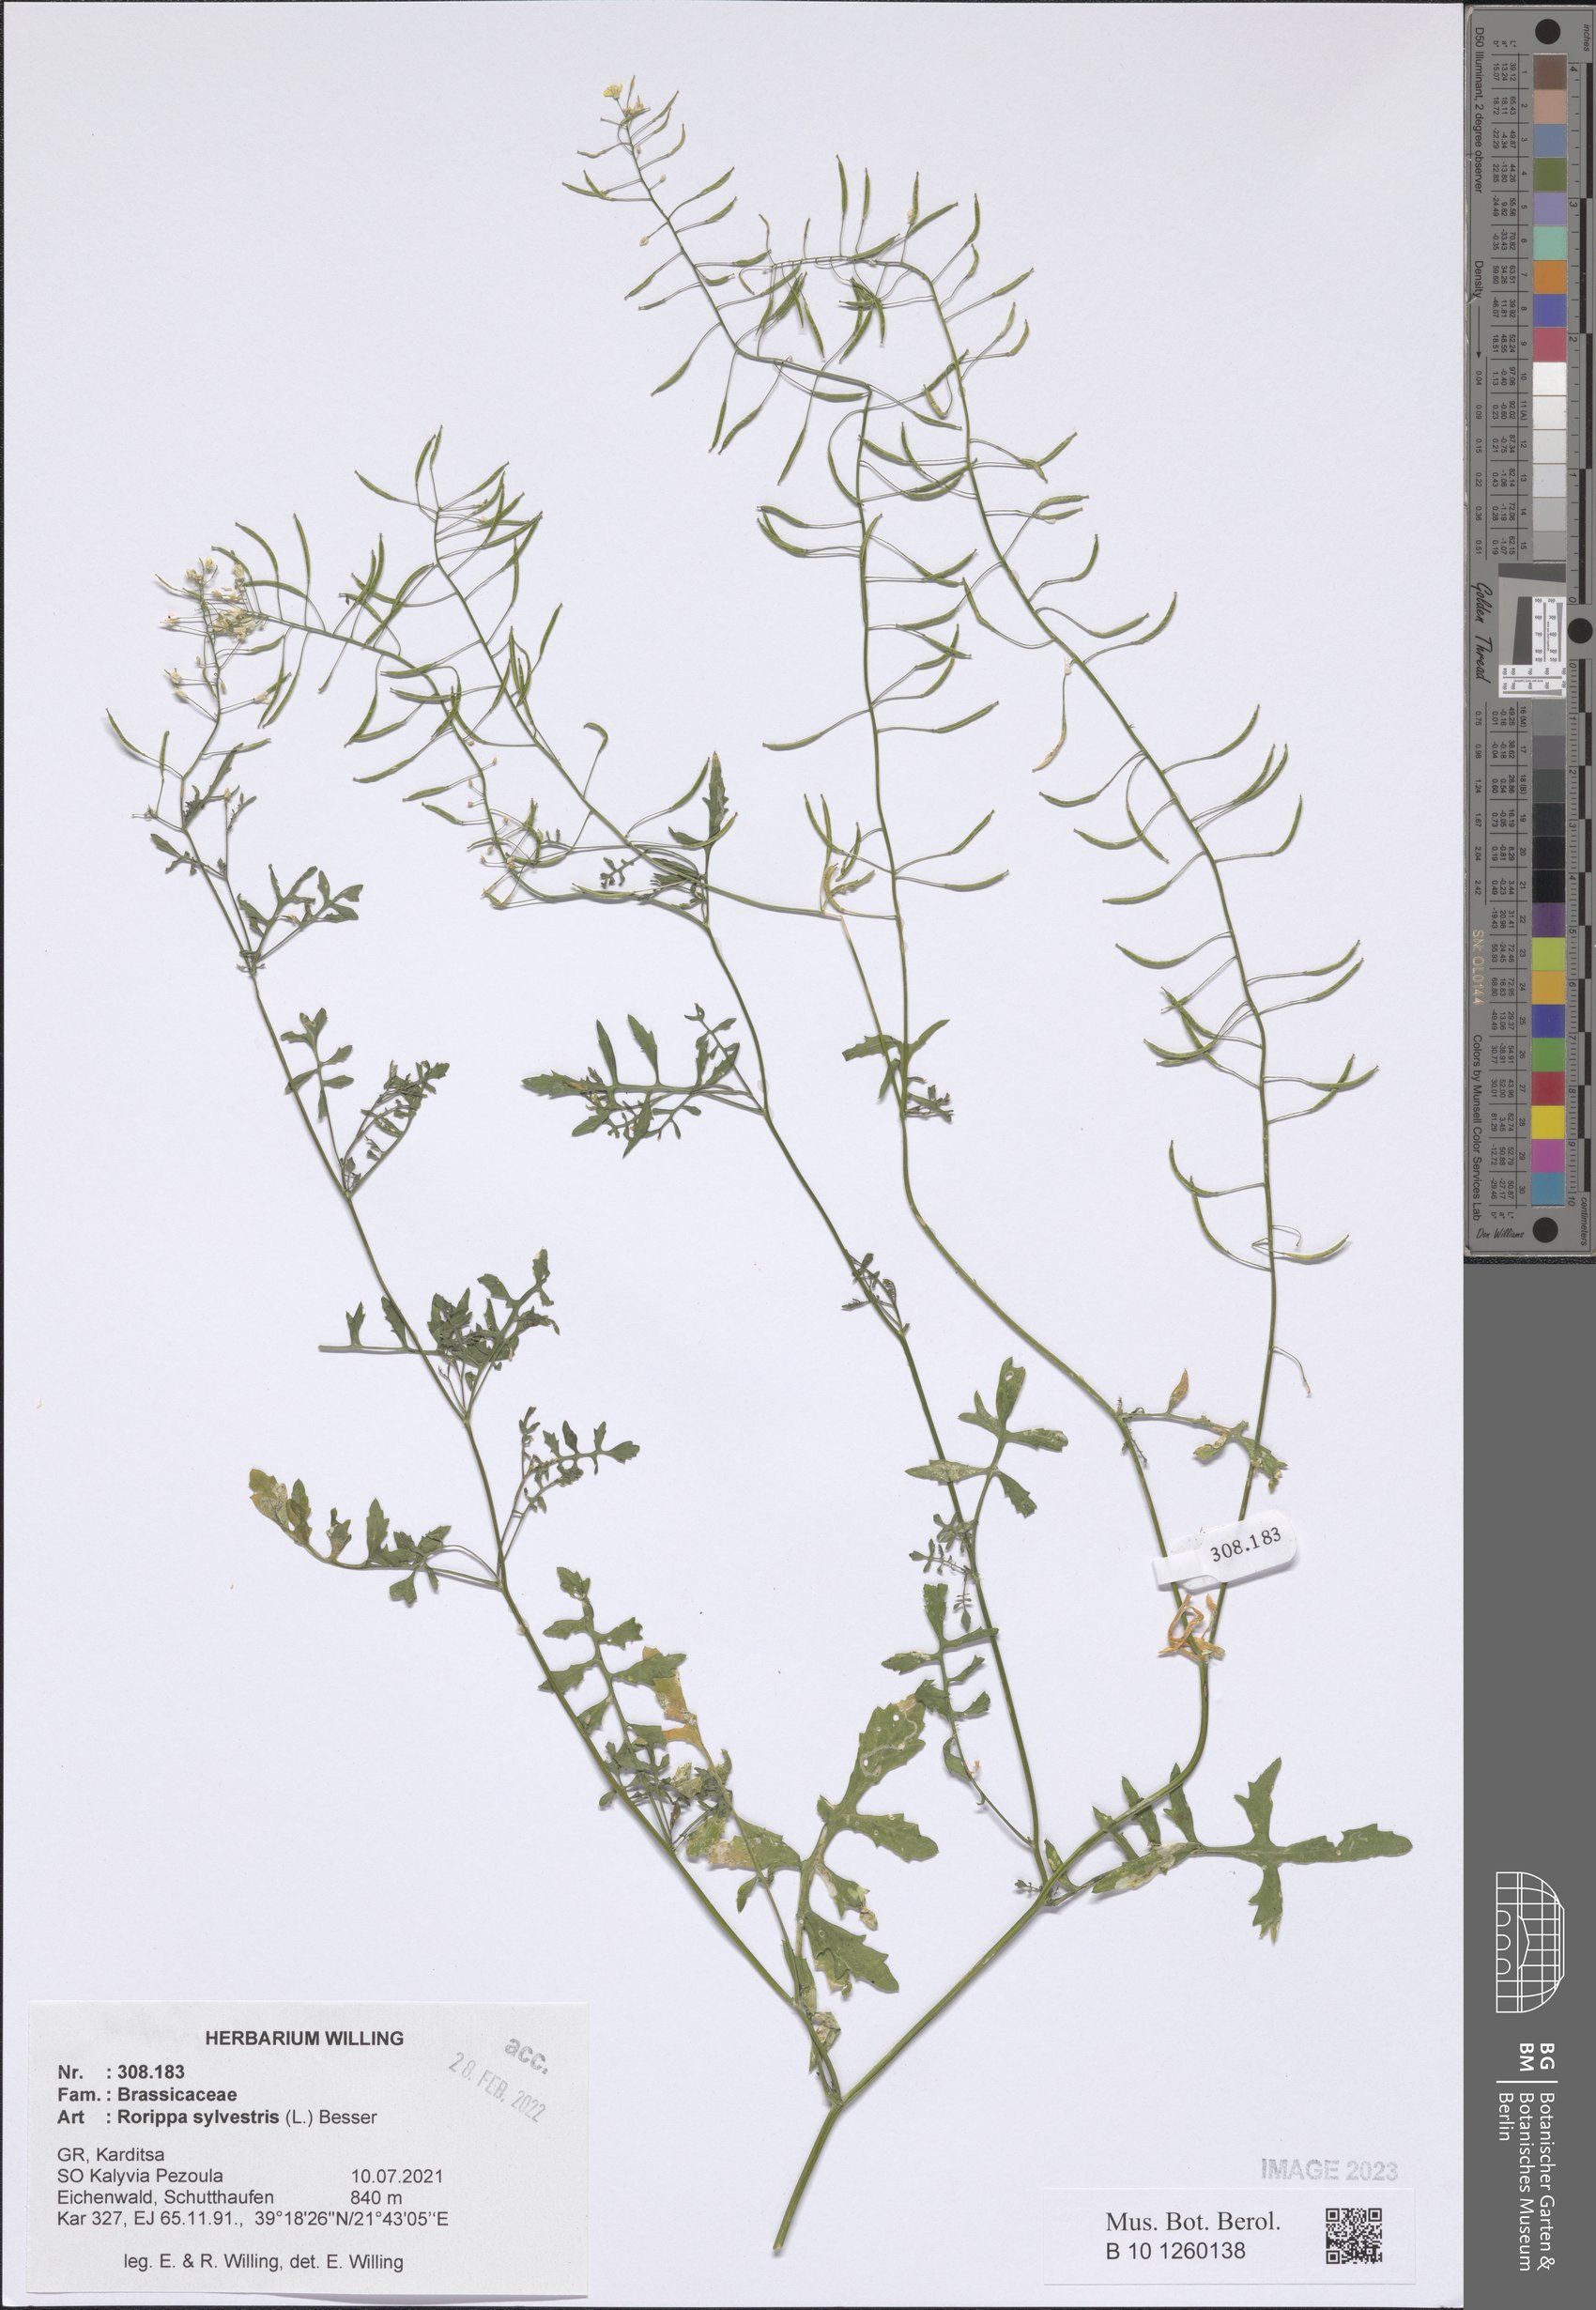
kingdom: Plantae
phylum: Tracheophyta
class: Magnoliopsida
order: Brassicales
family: Brassicaceae
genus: Rorippa
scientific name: Rorippa sylvestris
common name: Creeping yellowcress
